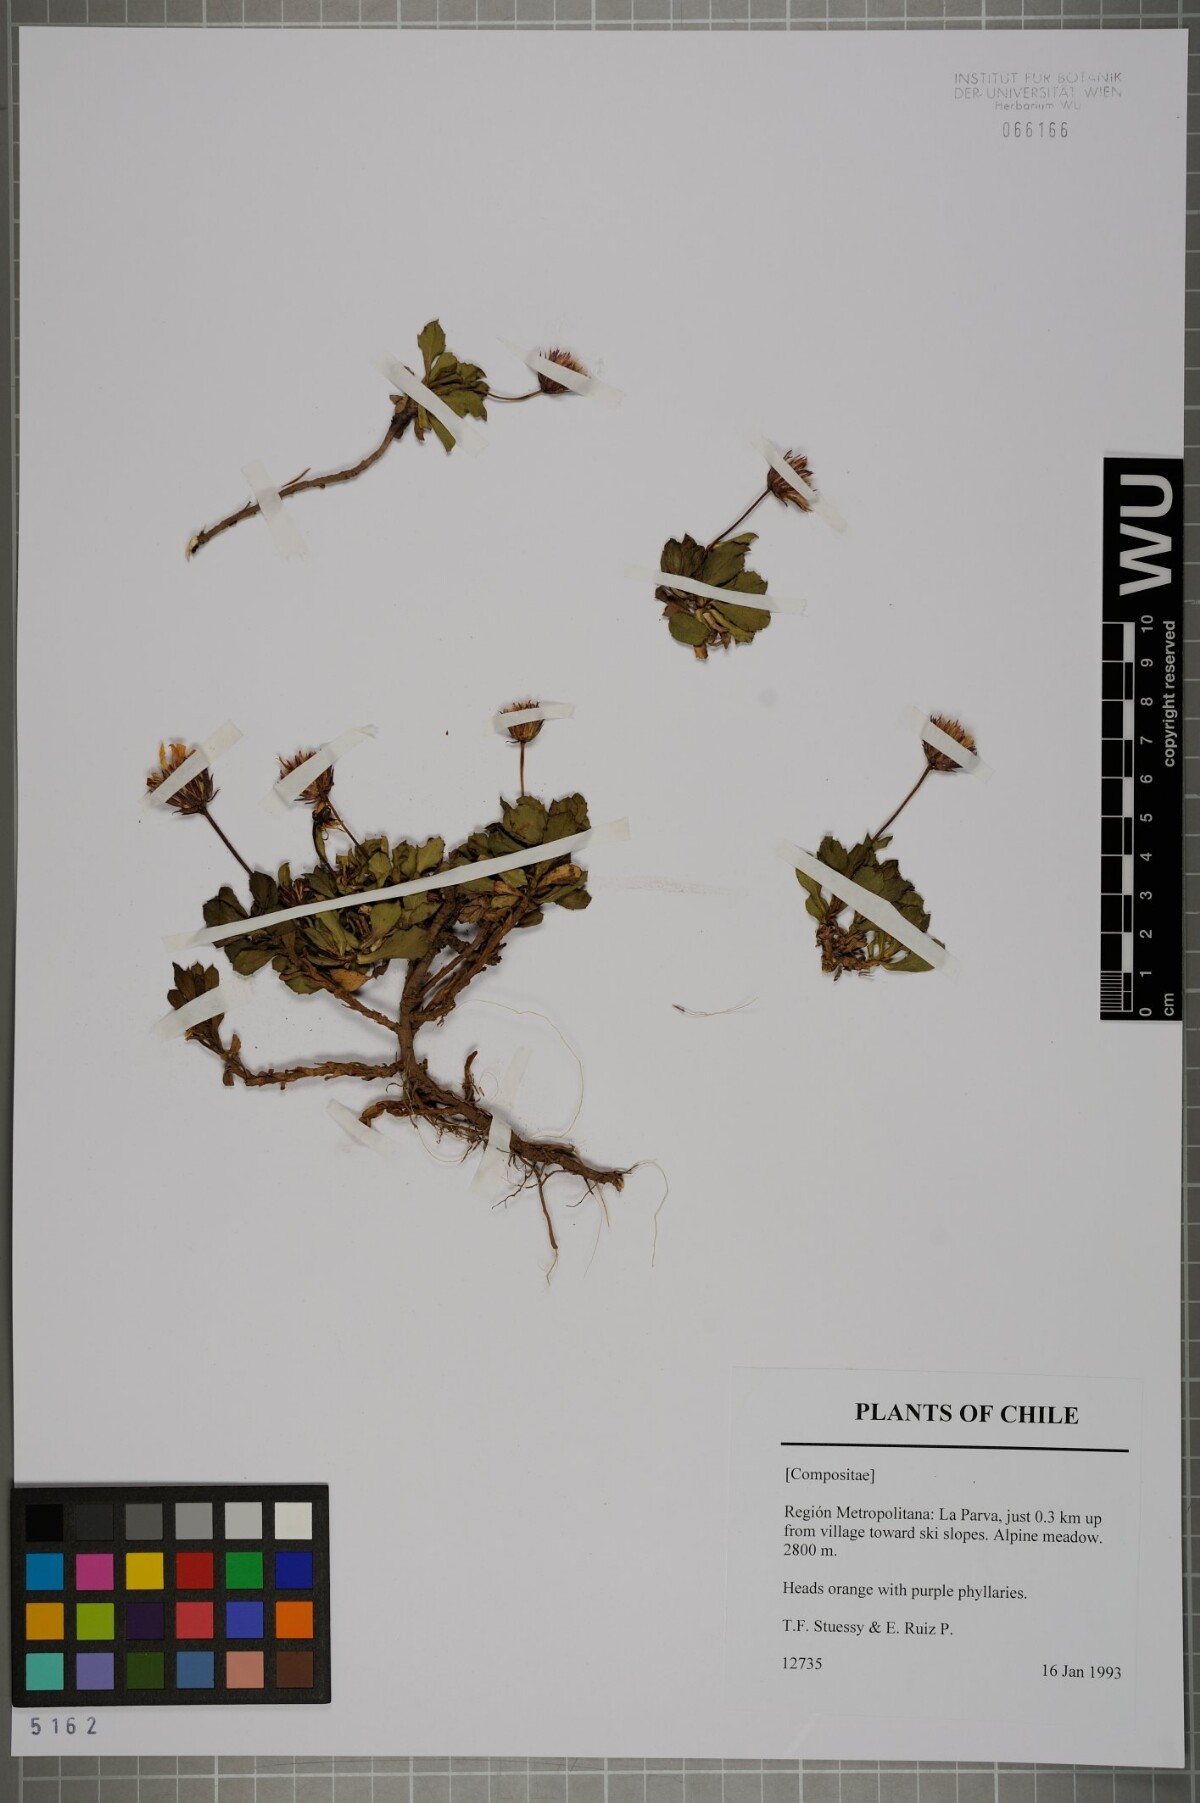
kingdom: Plantae
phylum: Tracheophyta
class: Magnoliopsida
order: Asterales
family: Asteraceae
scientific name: Asteraceae
